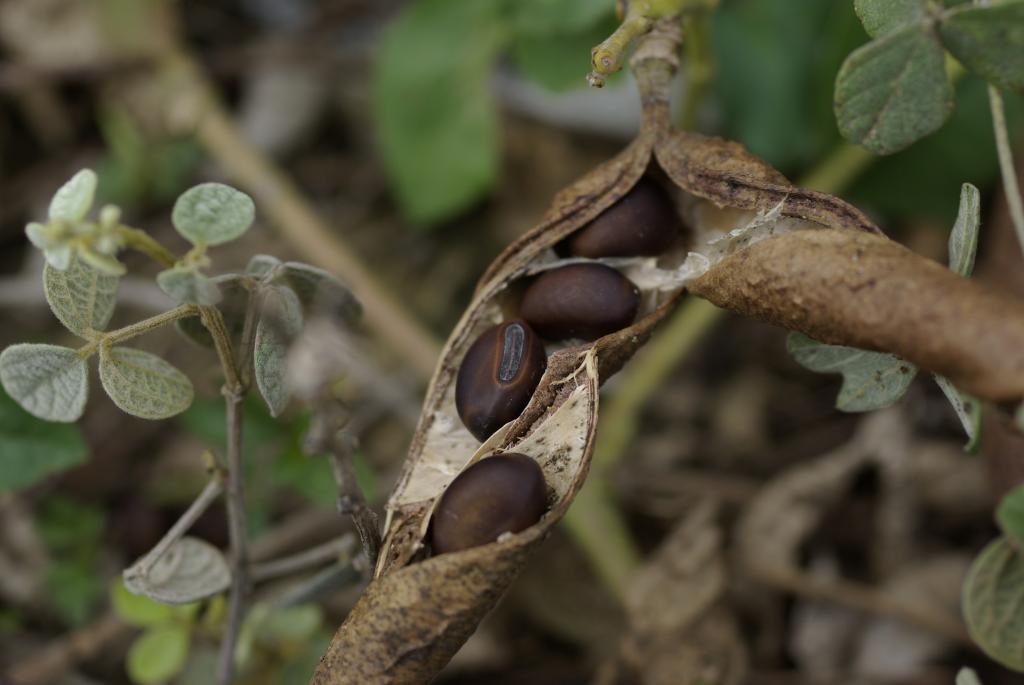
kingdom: Plantae
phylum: Tracheophyta
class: Magnoliopsida
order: Fabales
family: Fabaceae
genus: Canavalia
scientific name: Canavalia rosea
